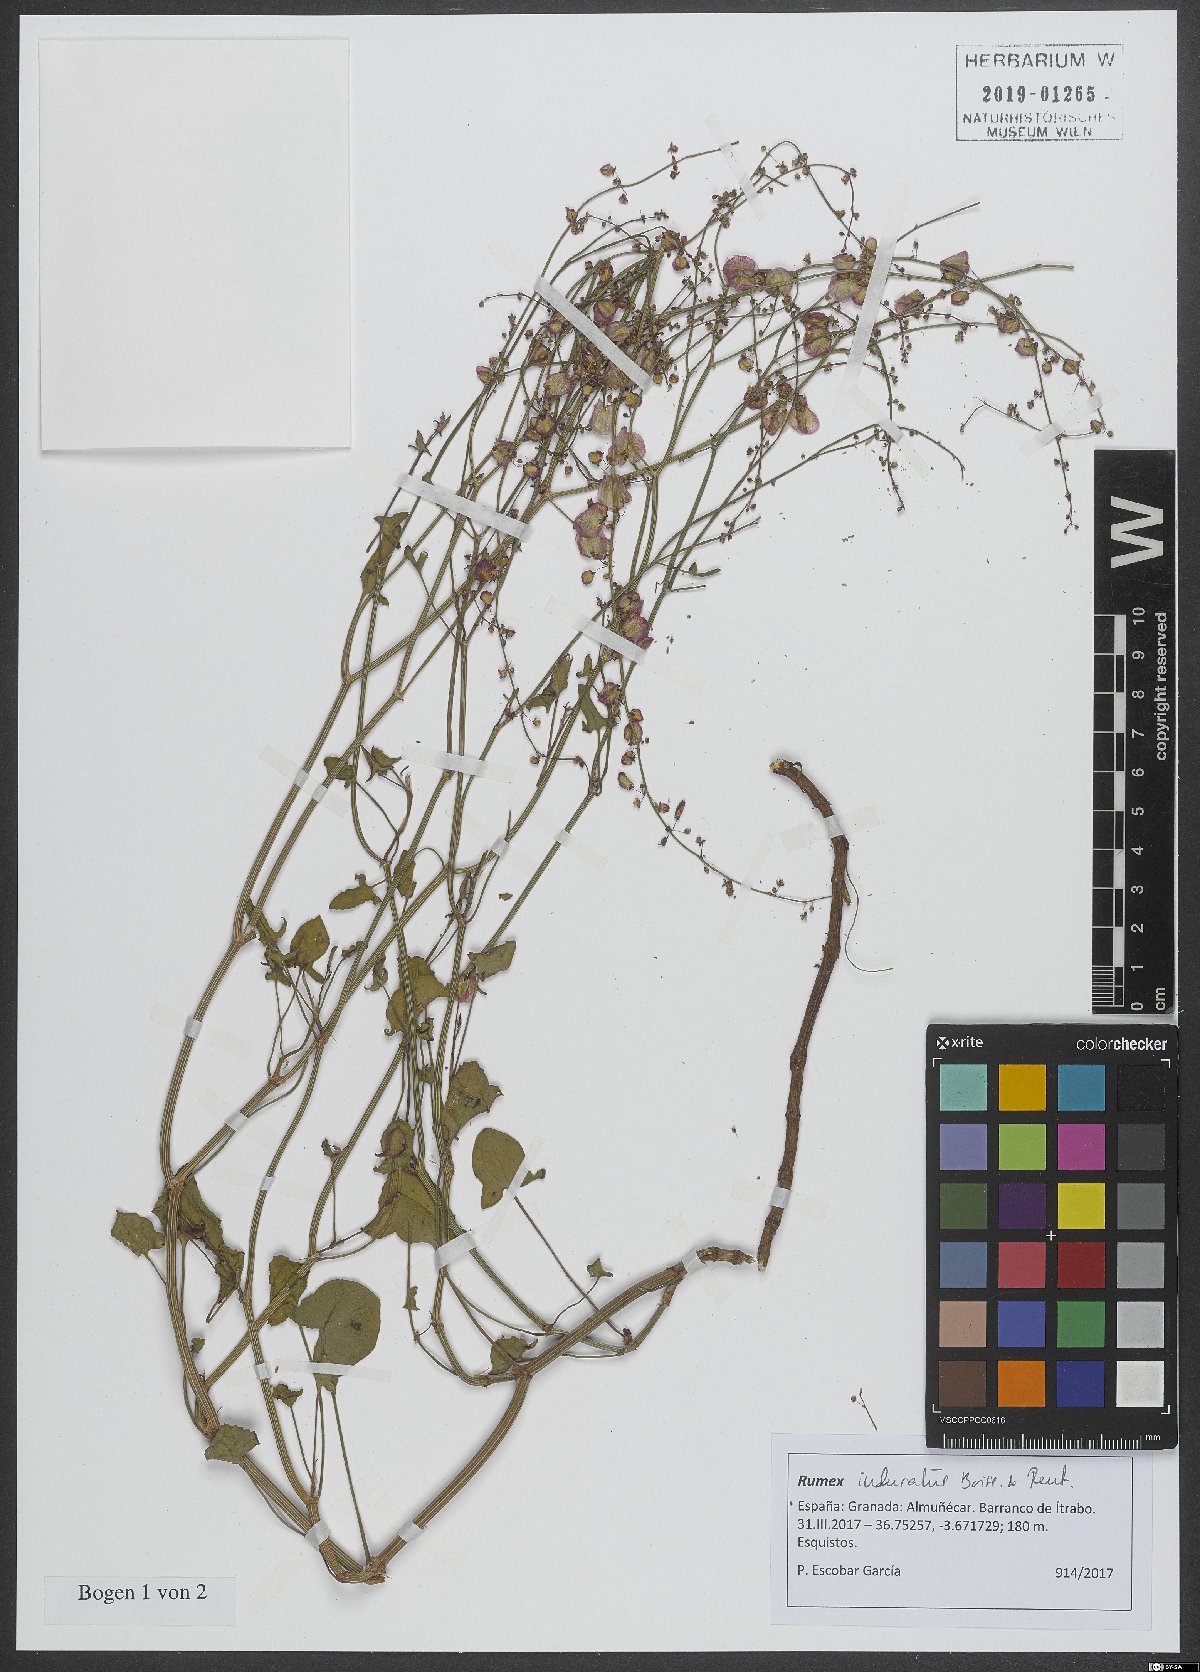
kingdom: Plantae
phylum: Tracheophyta
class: Magnoliopsida
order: Caryophyllales
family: Polygonaceae
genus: Rumex
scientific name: Rumex induratus
